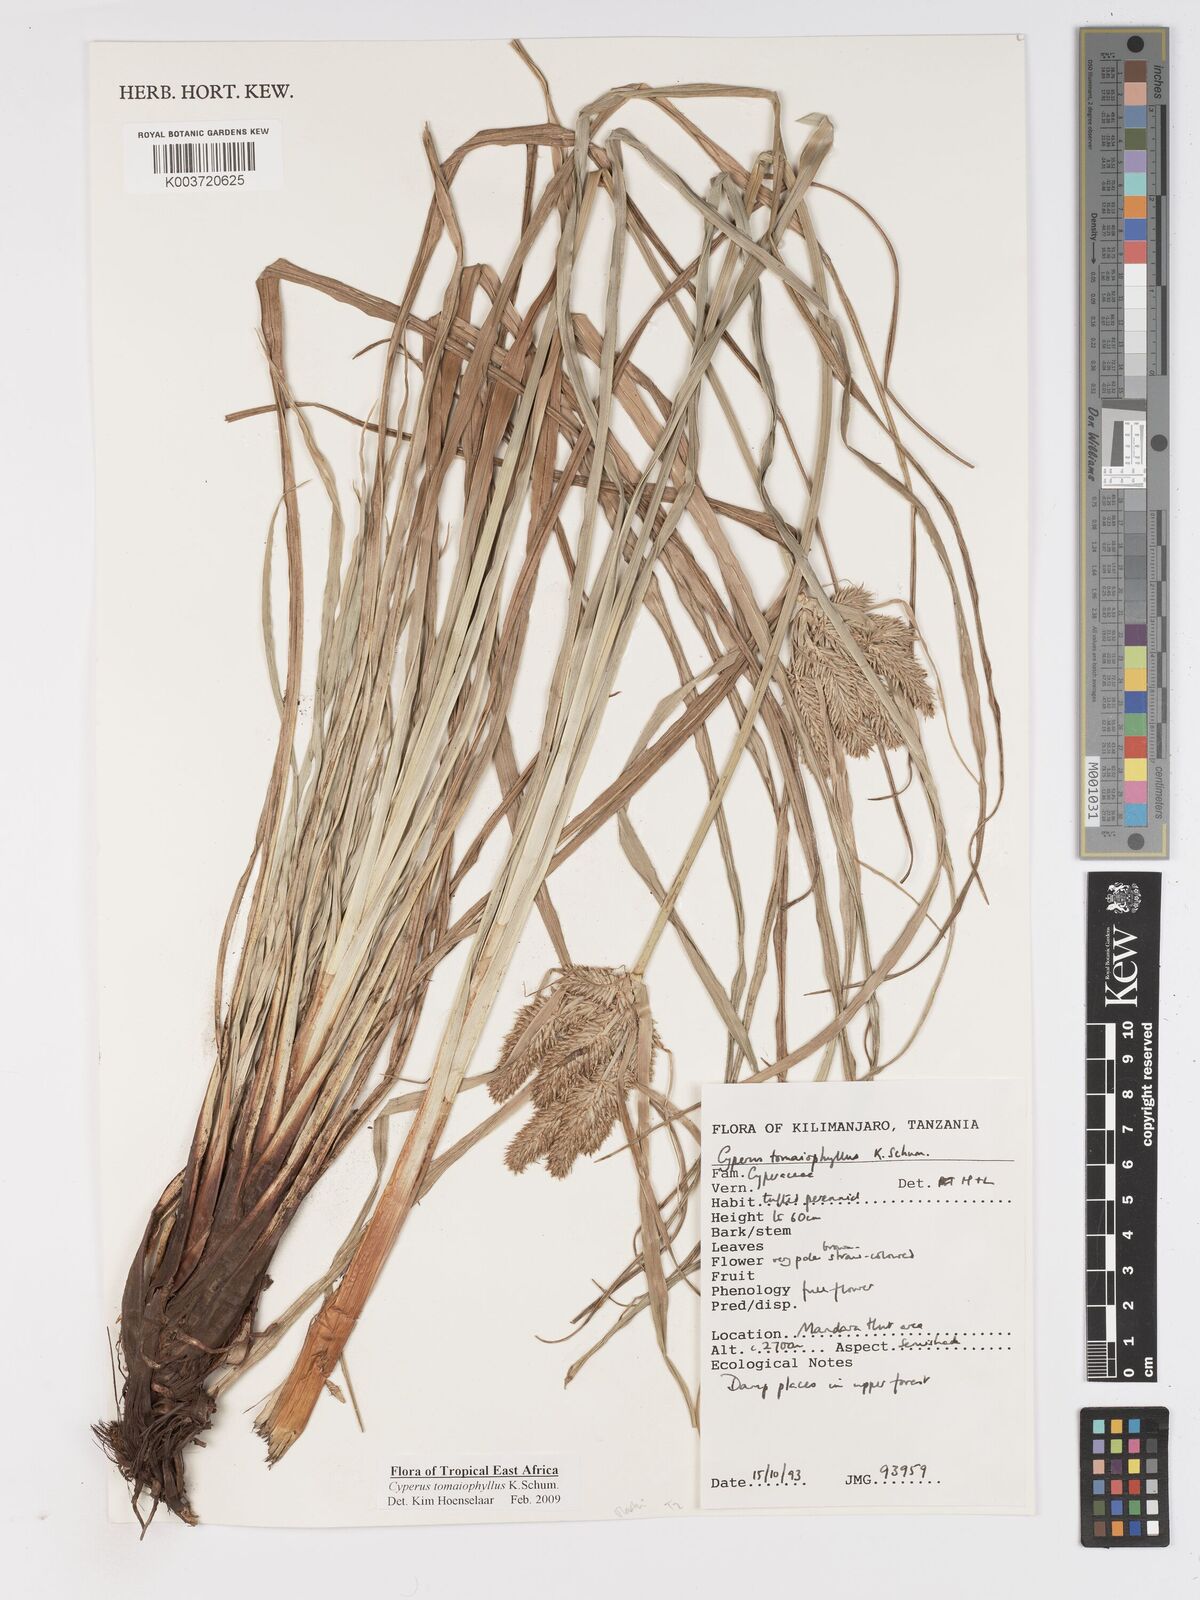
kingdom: Plantae
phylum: Tracheophyta
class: Liliopsida
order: Poales
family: Cyperaceae
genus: Cyperus
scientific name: Cyperus tomaiophyllus
